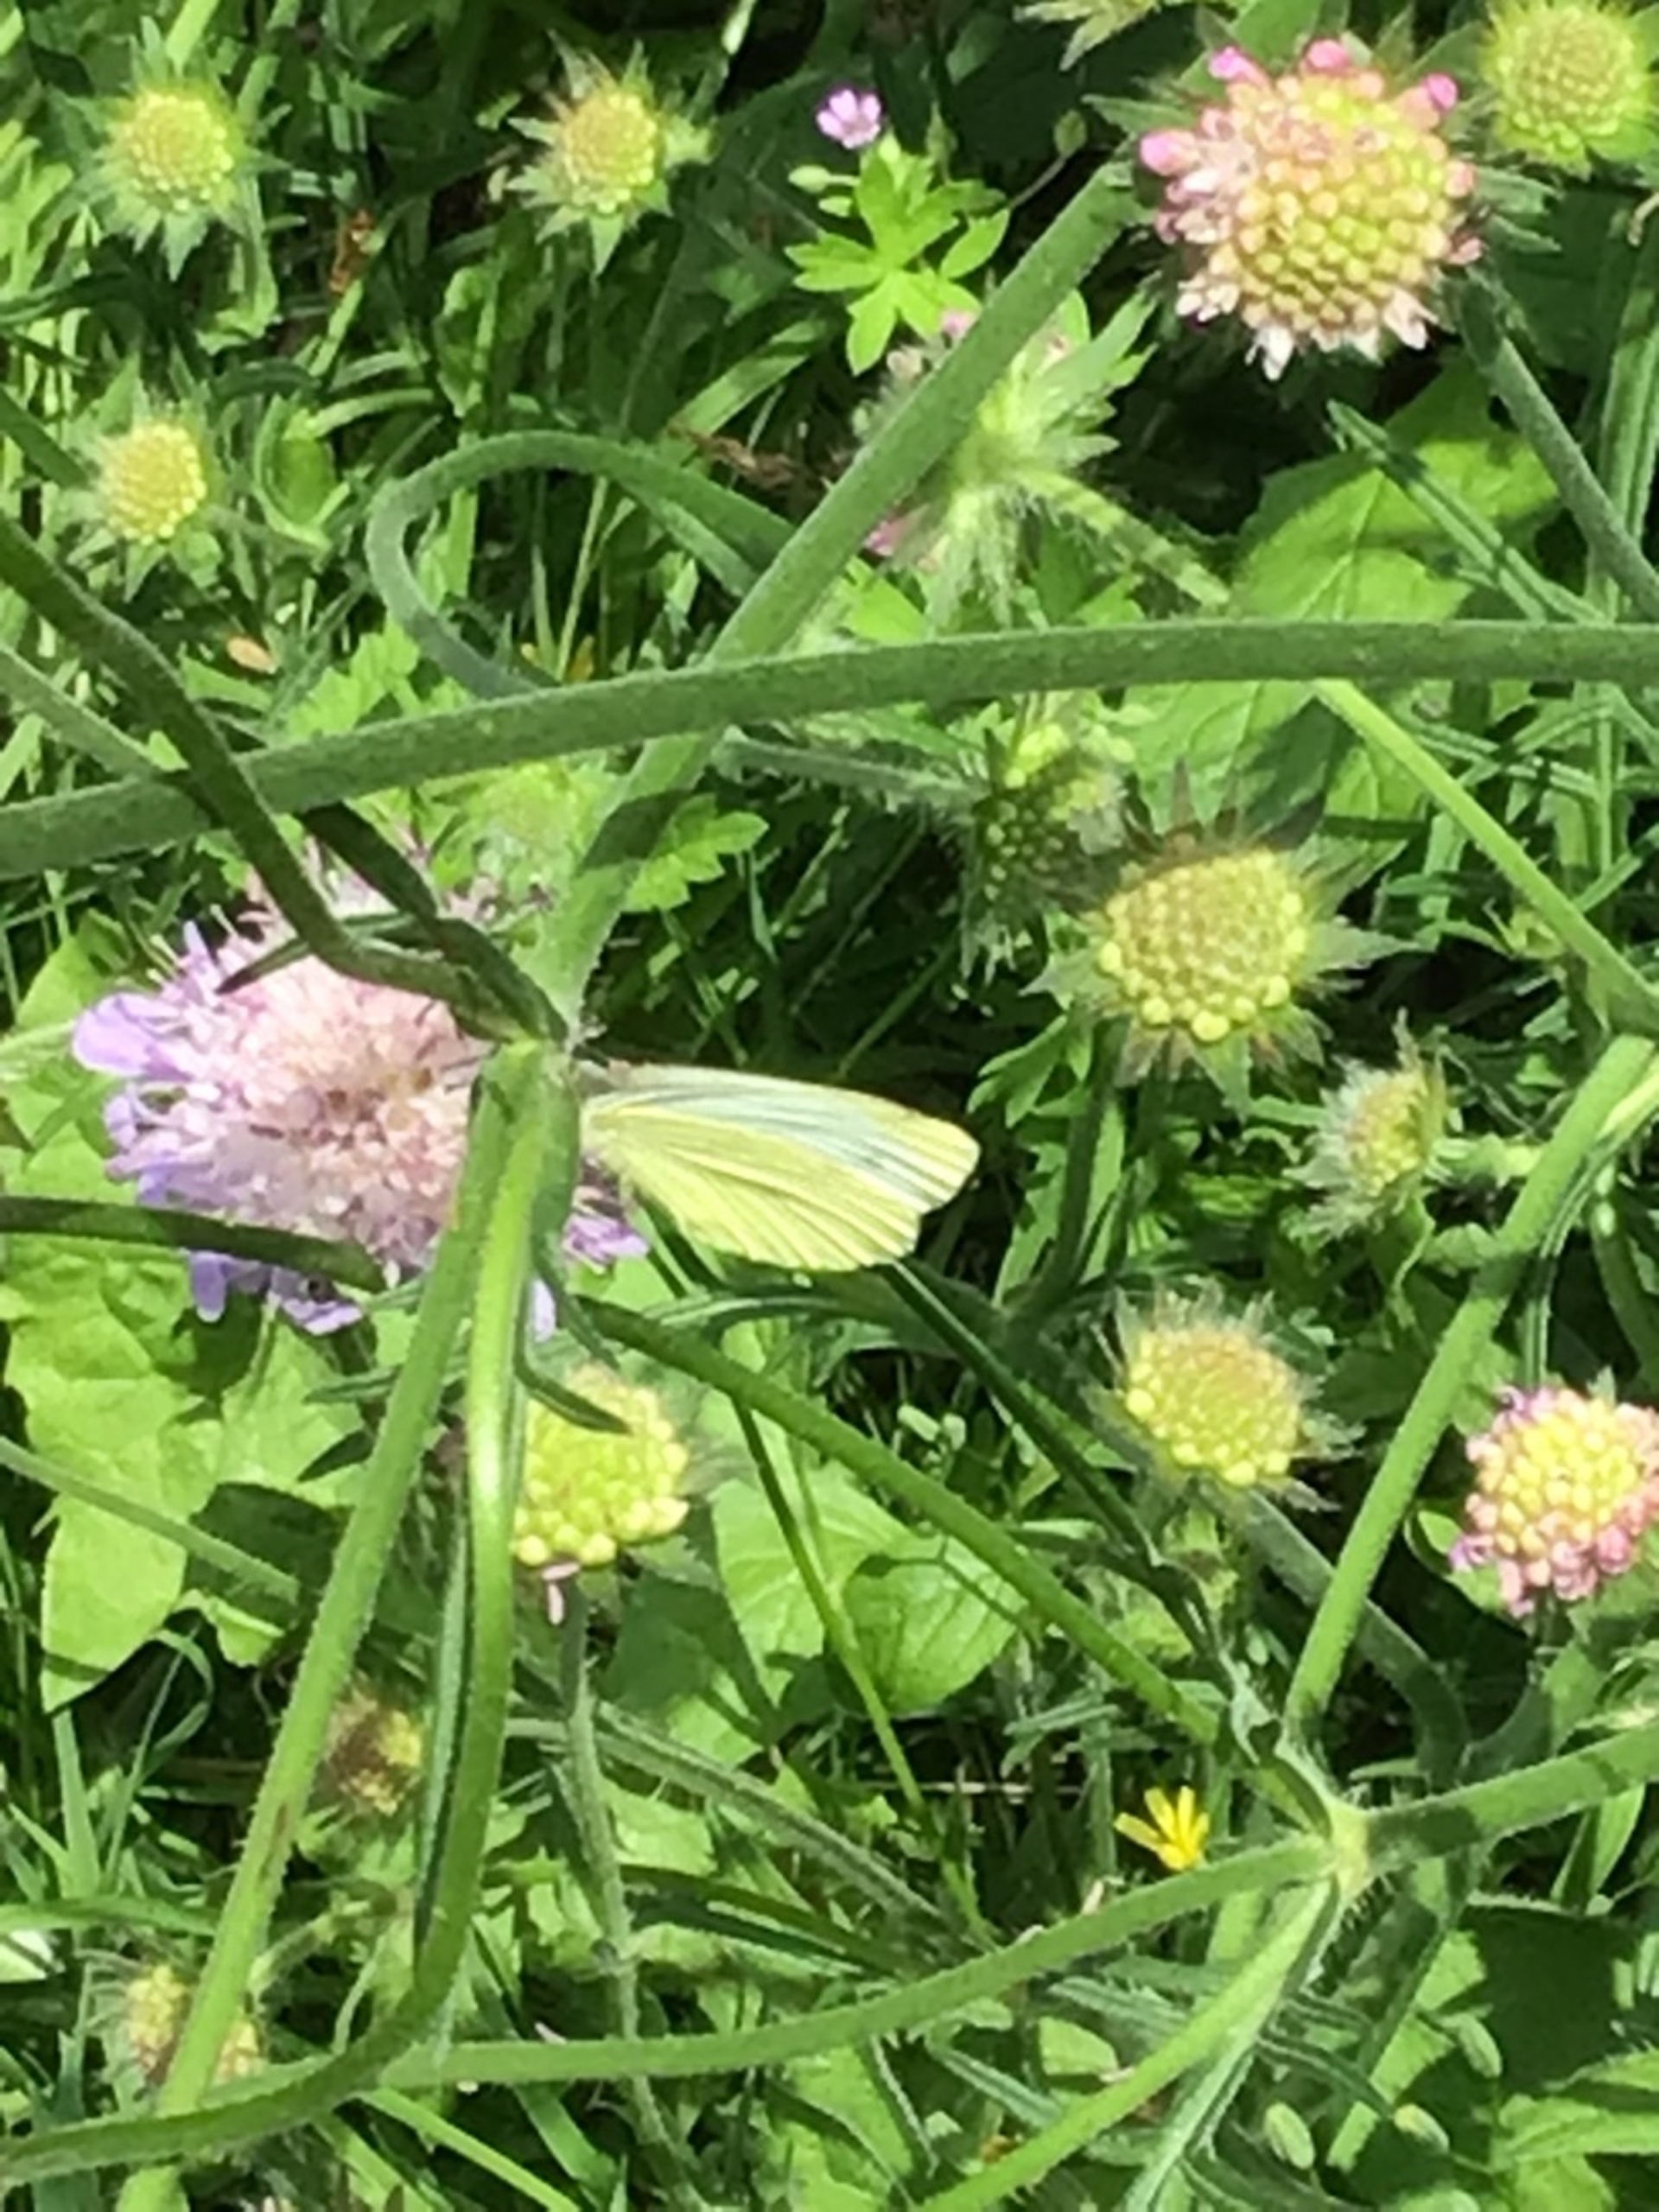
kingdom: Animalia
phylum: Arthropoda
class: Insecta
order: Lepidoptera
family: Pieridae
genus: Pieris
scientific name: Pieris rapae
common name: Lille kålsommerfugl
